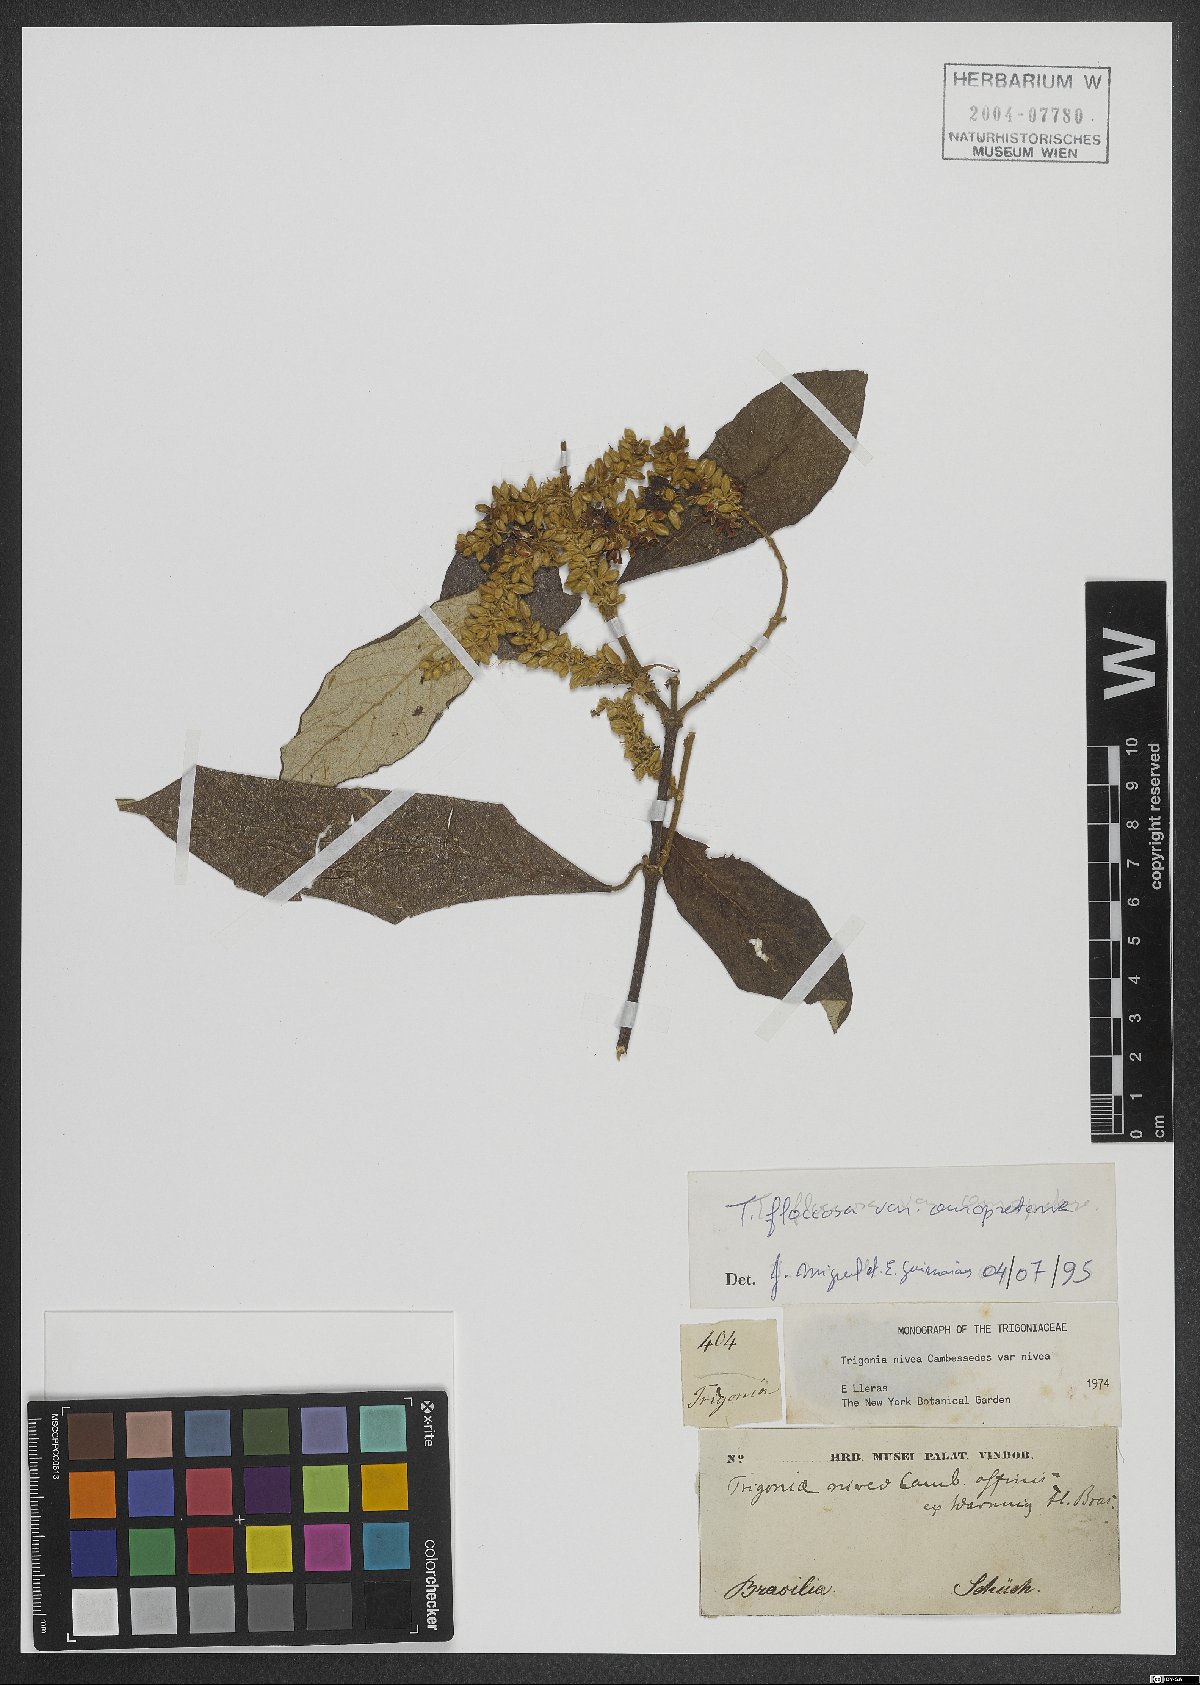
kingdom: Plantae
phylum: Tracheophyta
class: Magnoliopsida
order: Malpighiales
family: Trigoniaceae
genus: Trigonia
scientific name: Trigonia floccosa
